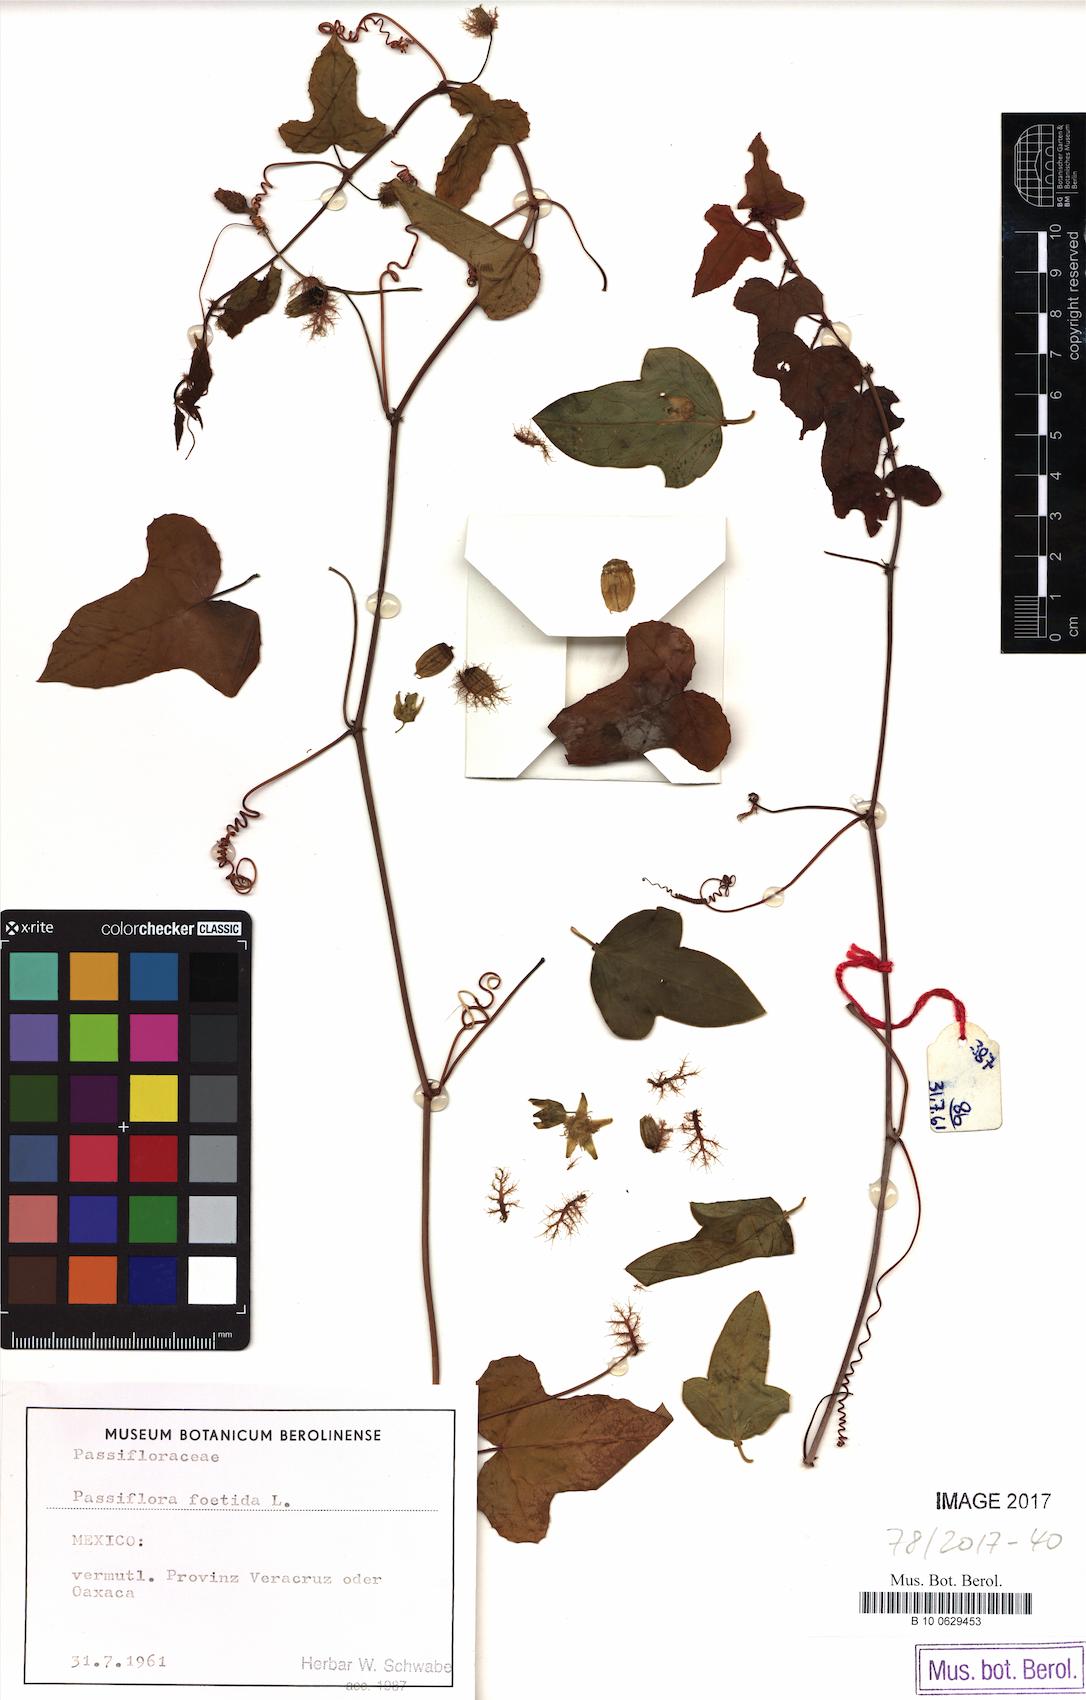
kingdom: Plantae
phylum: Tracheophyta
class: Magnoliopsida
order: Malpighiales
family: Passifloraceae
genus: Passiflora
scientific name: Passiflora foetida
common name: Fetid passionflower
